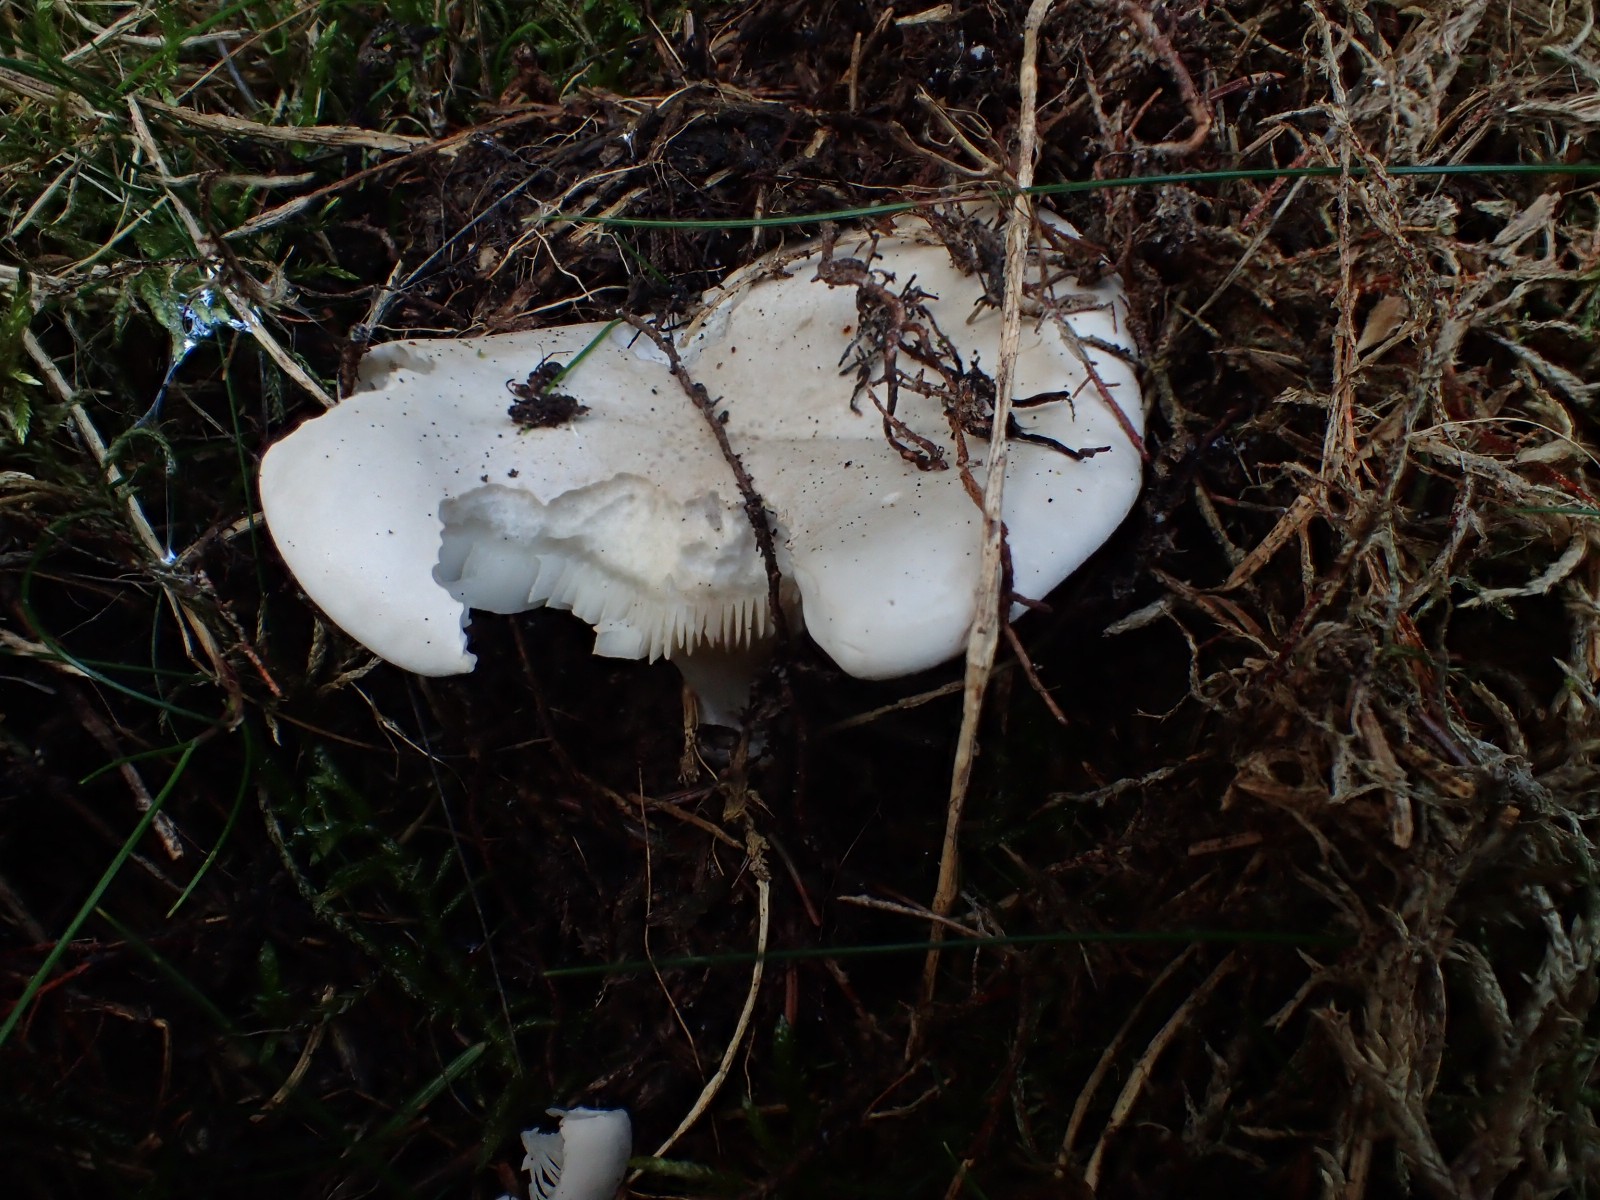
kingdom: Fungi
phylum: Basidiomycota
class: Agaricomycetes
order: Agaricales
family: Entolomataceae
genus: Clitopilus
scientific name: Clitopilus prunulus
